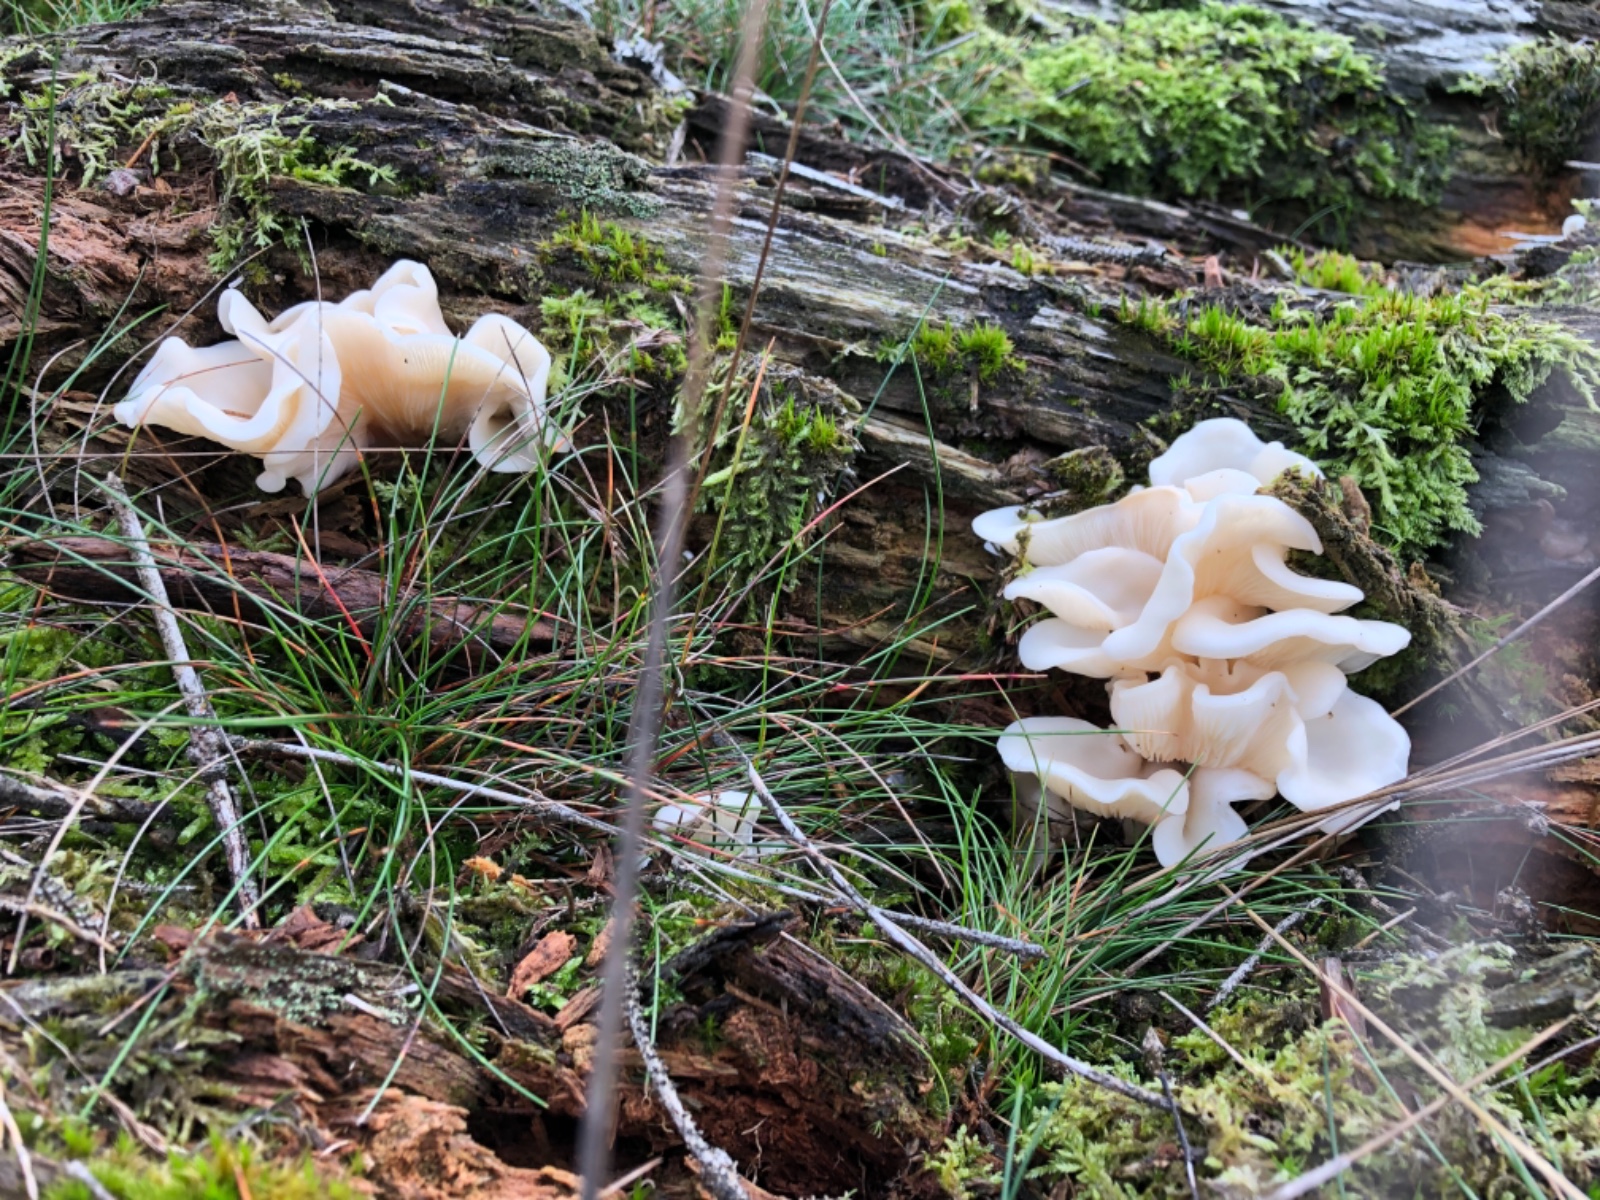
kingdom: Fungi
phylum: Basidiomycota
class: Agaricomycetes
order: Agaricales
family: Marasmiaceae
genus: Pleurocybella
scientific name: Pleurocybella porrigens
